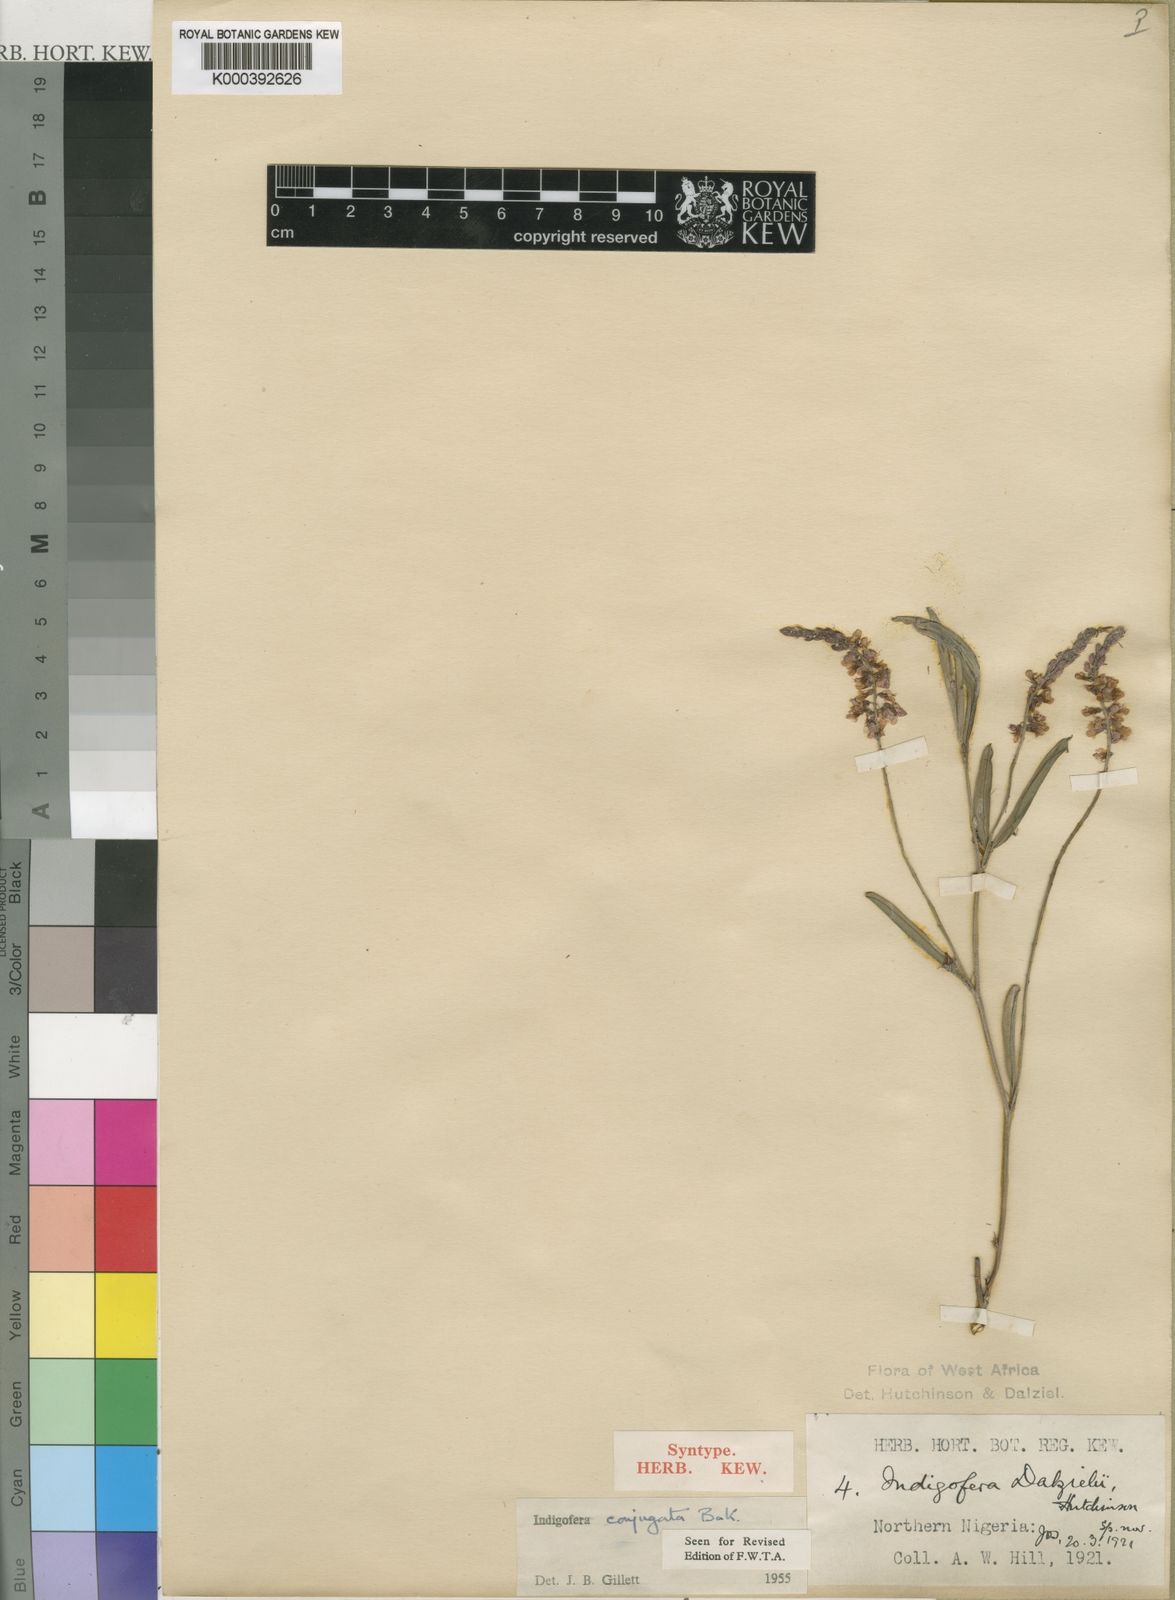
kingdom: Plantae
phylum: Tracheophyta
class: Magnoliopsida
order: Fabales
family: Fabaceae
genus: Indigofera
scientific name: Indigofera conjugata
